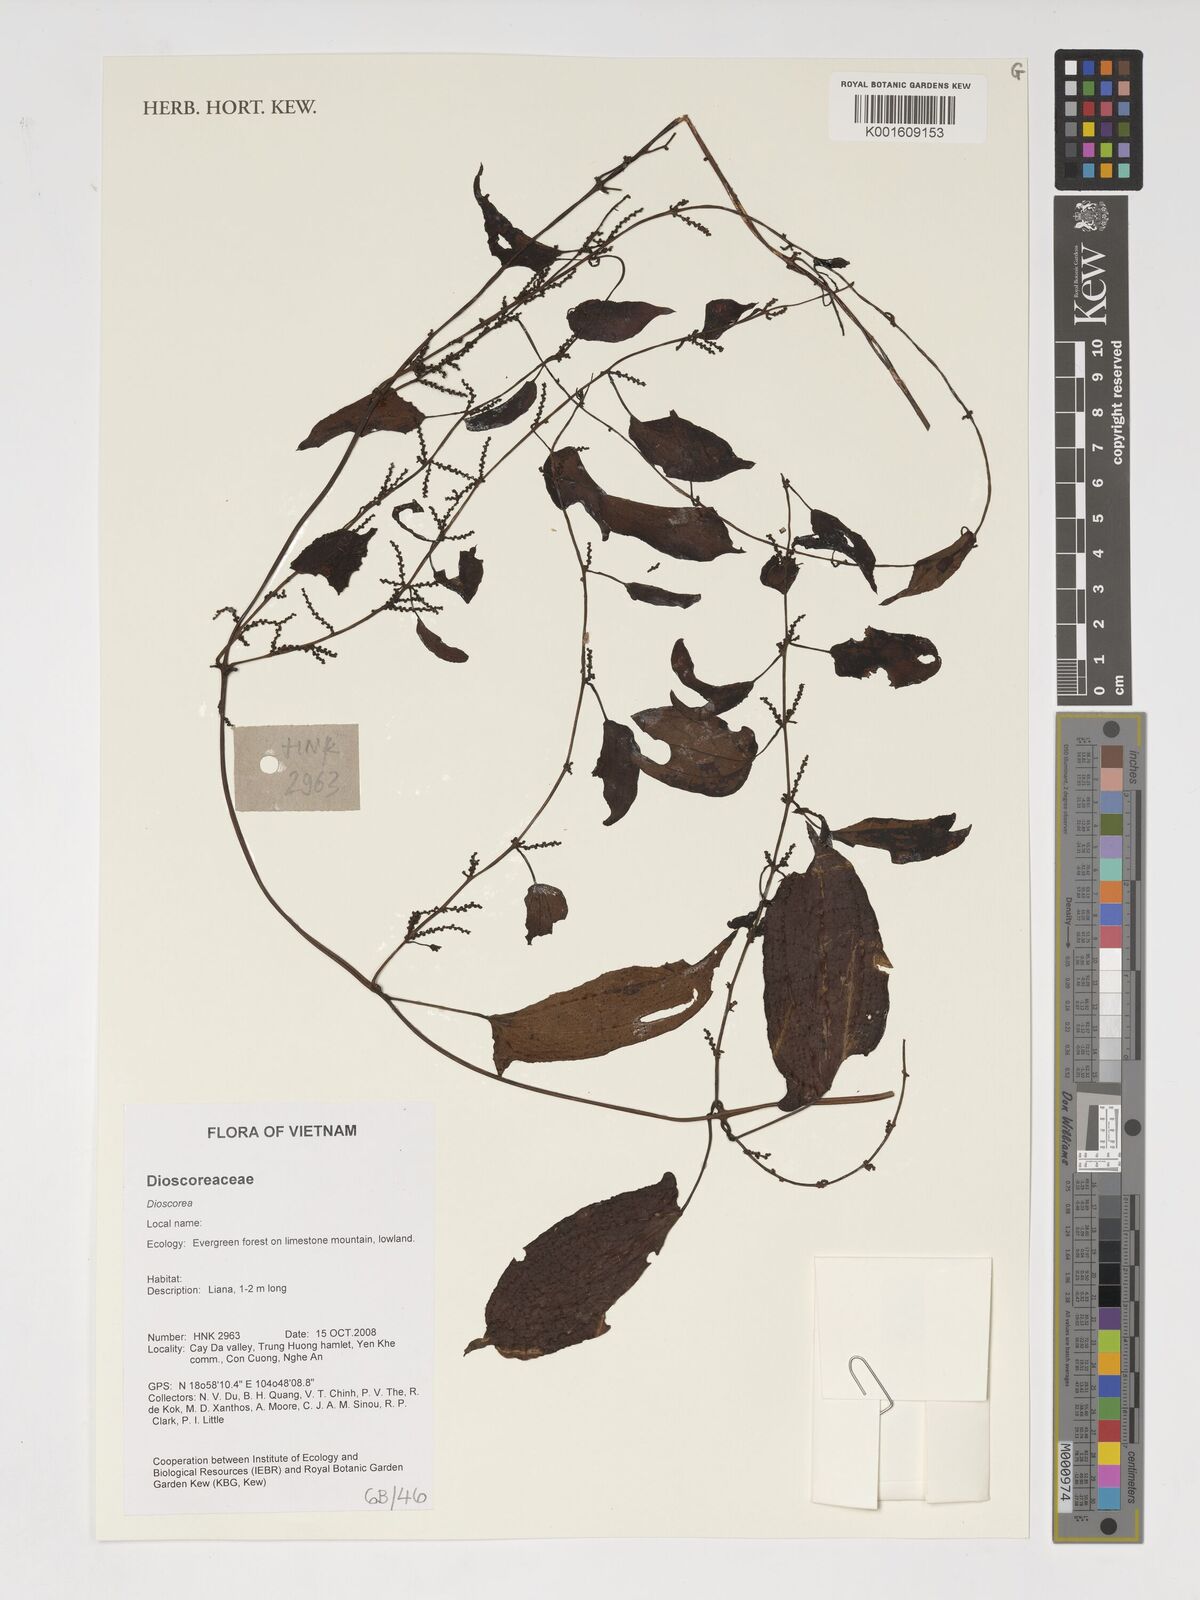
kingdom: Plantae
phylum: Tracheophyta
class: Liliopsida
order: Dioscoreales
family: Dioscoreaceae
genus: Dioscorea
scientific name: Dioscorea
